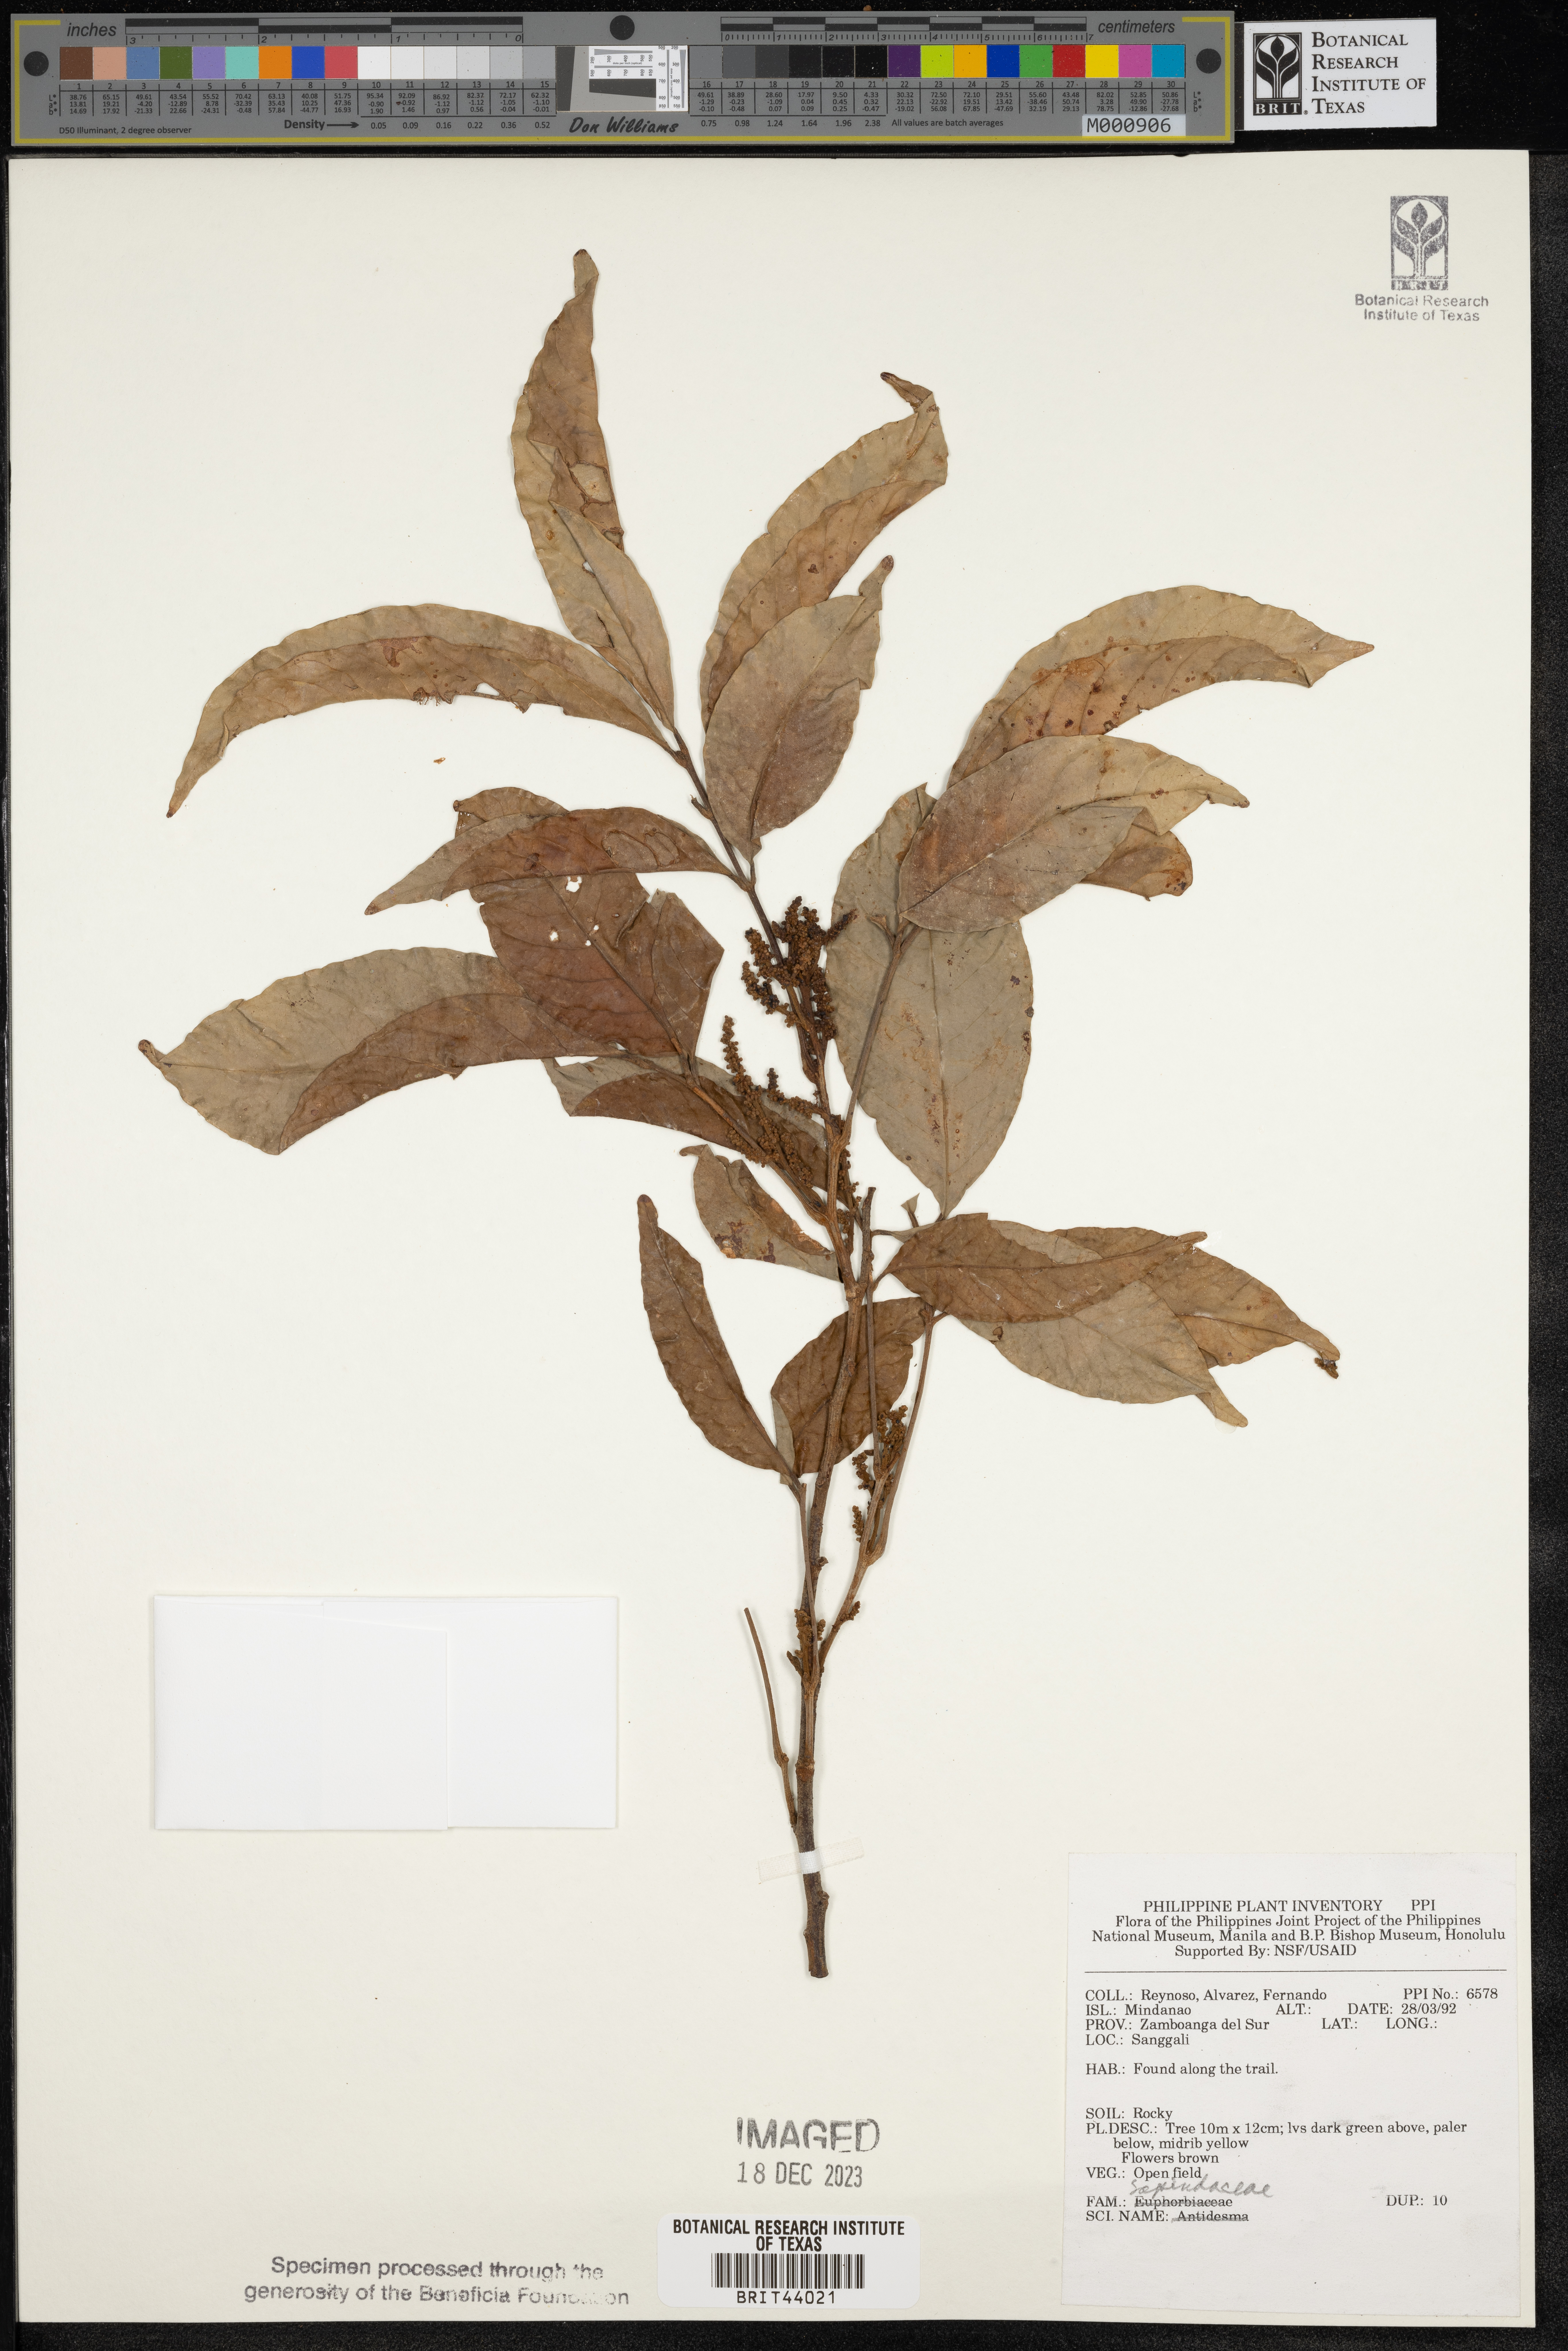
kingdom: Plantae
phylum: Tracheophyta
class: Magnoliopsida
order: Sapindales
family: Sapindaceae
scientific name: Sapindaceae
